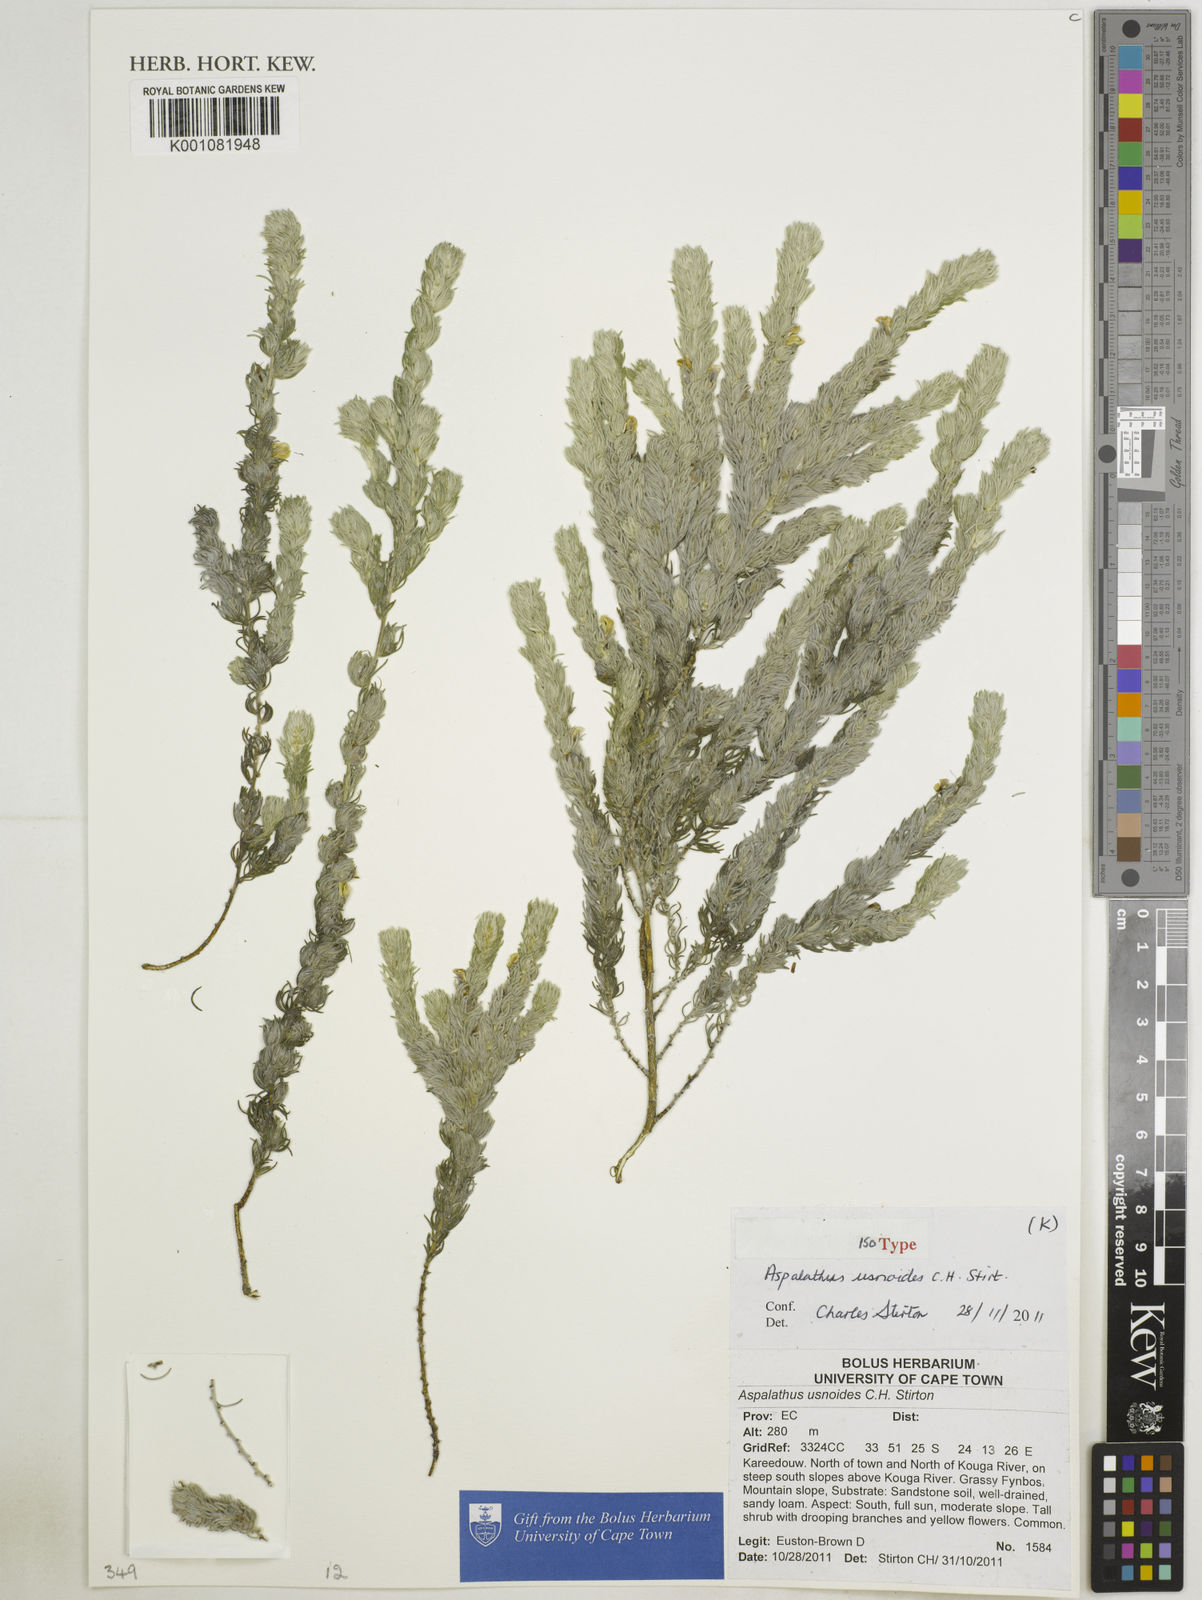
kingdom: Plantae
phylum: Tracheophyta
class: Magnoliopsida
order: Fabales
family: Fabaceae
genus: Aspalathus
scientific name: Aspalathus usnoides
